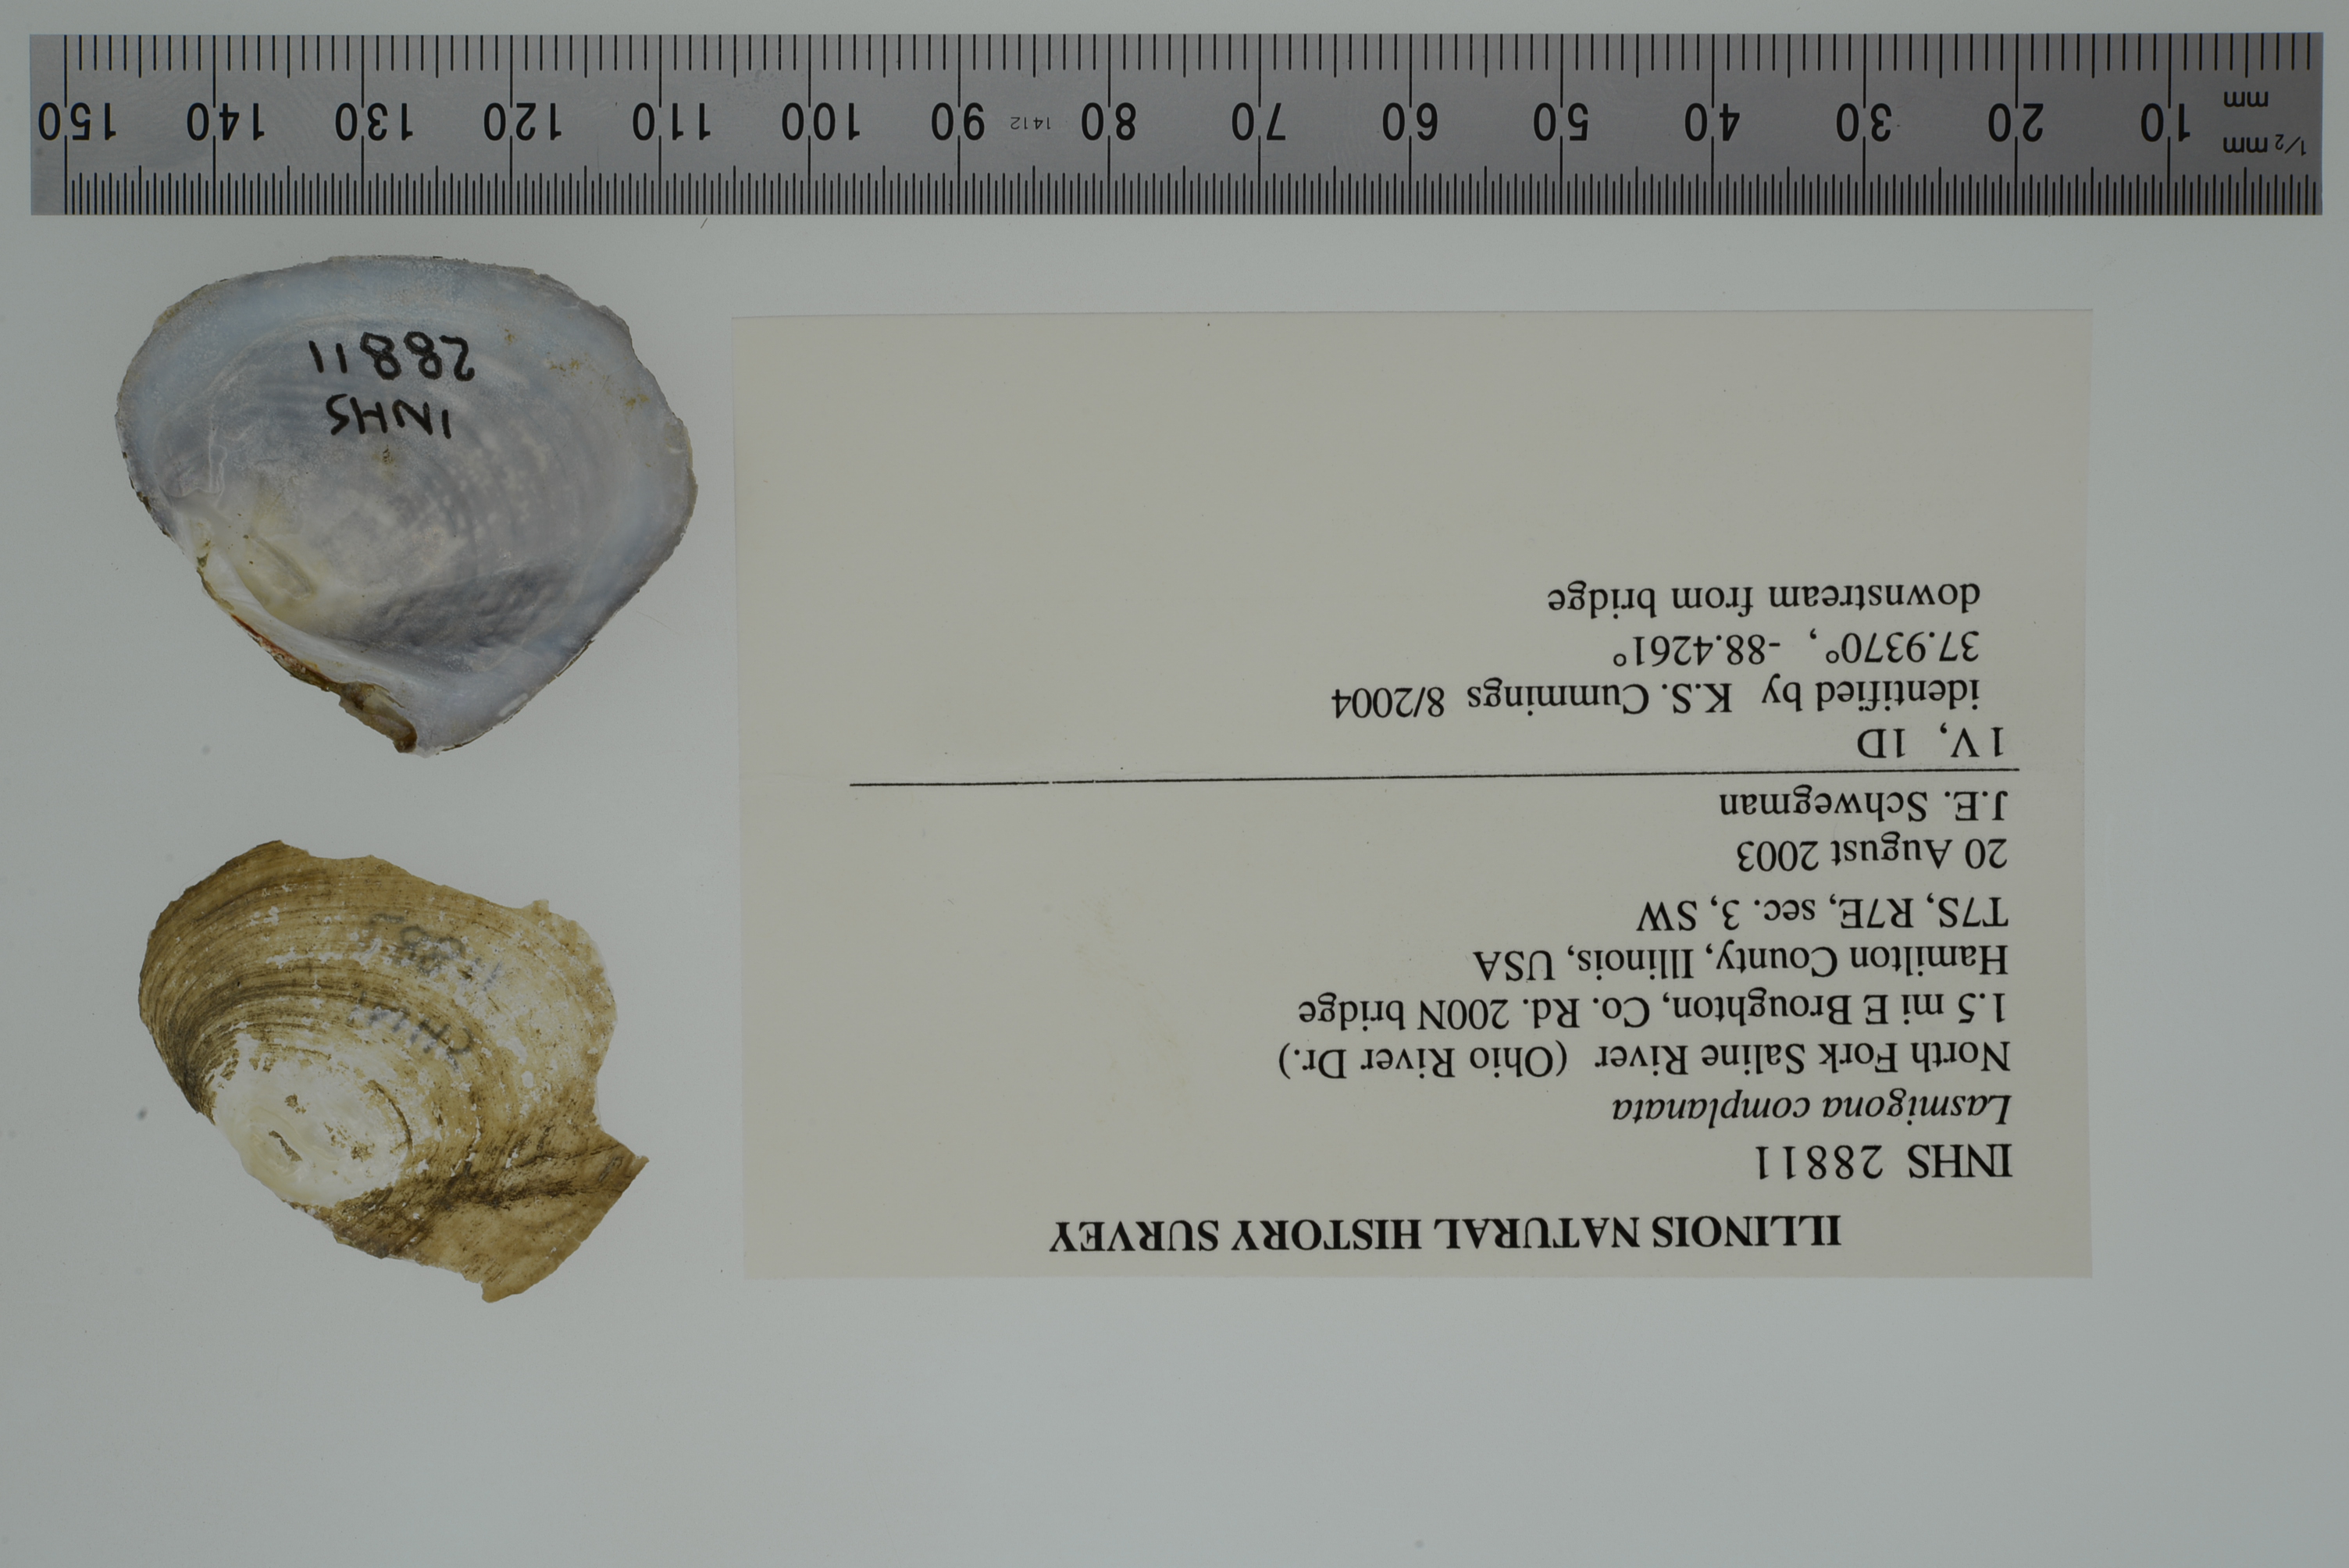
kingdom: Animalia
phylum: Mollusca
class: Bivalvia
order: Unionida
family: Unionidae
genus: Lasmigona
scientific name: Lasmigona complanata
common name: White heelsplitter
